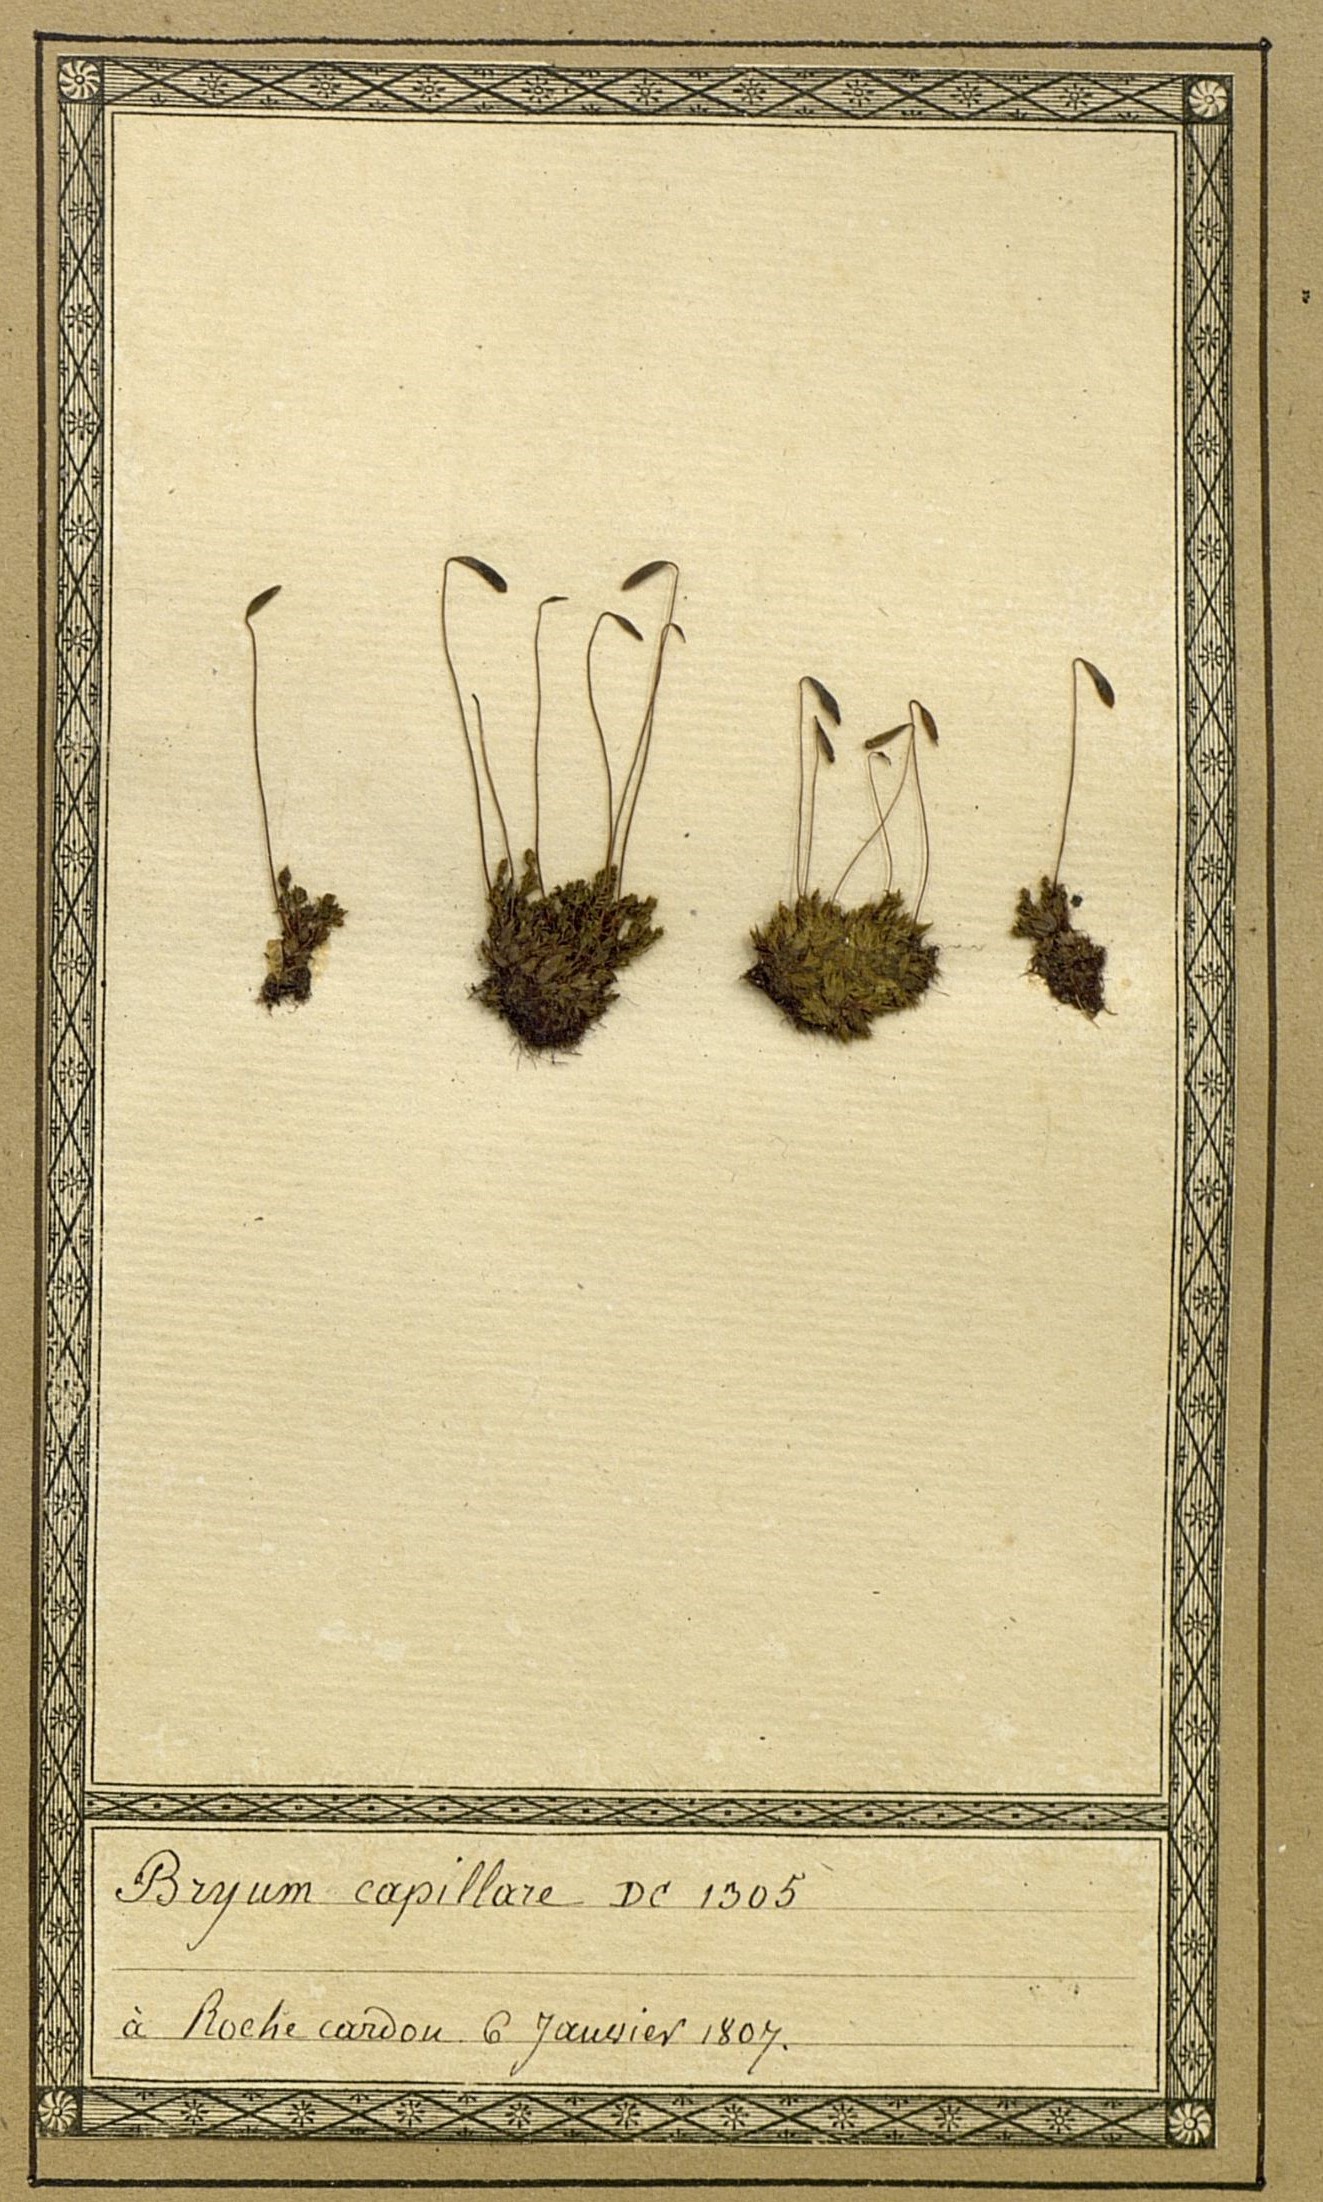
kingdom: Plantae
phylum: Bryophyta
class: Bryopsida
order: Bryales
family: Bryaceae
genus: Rosulabryum
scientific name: Rosulabryum capillare
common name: Capillary thread-moss
